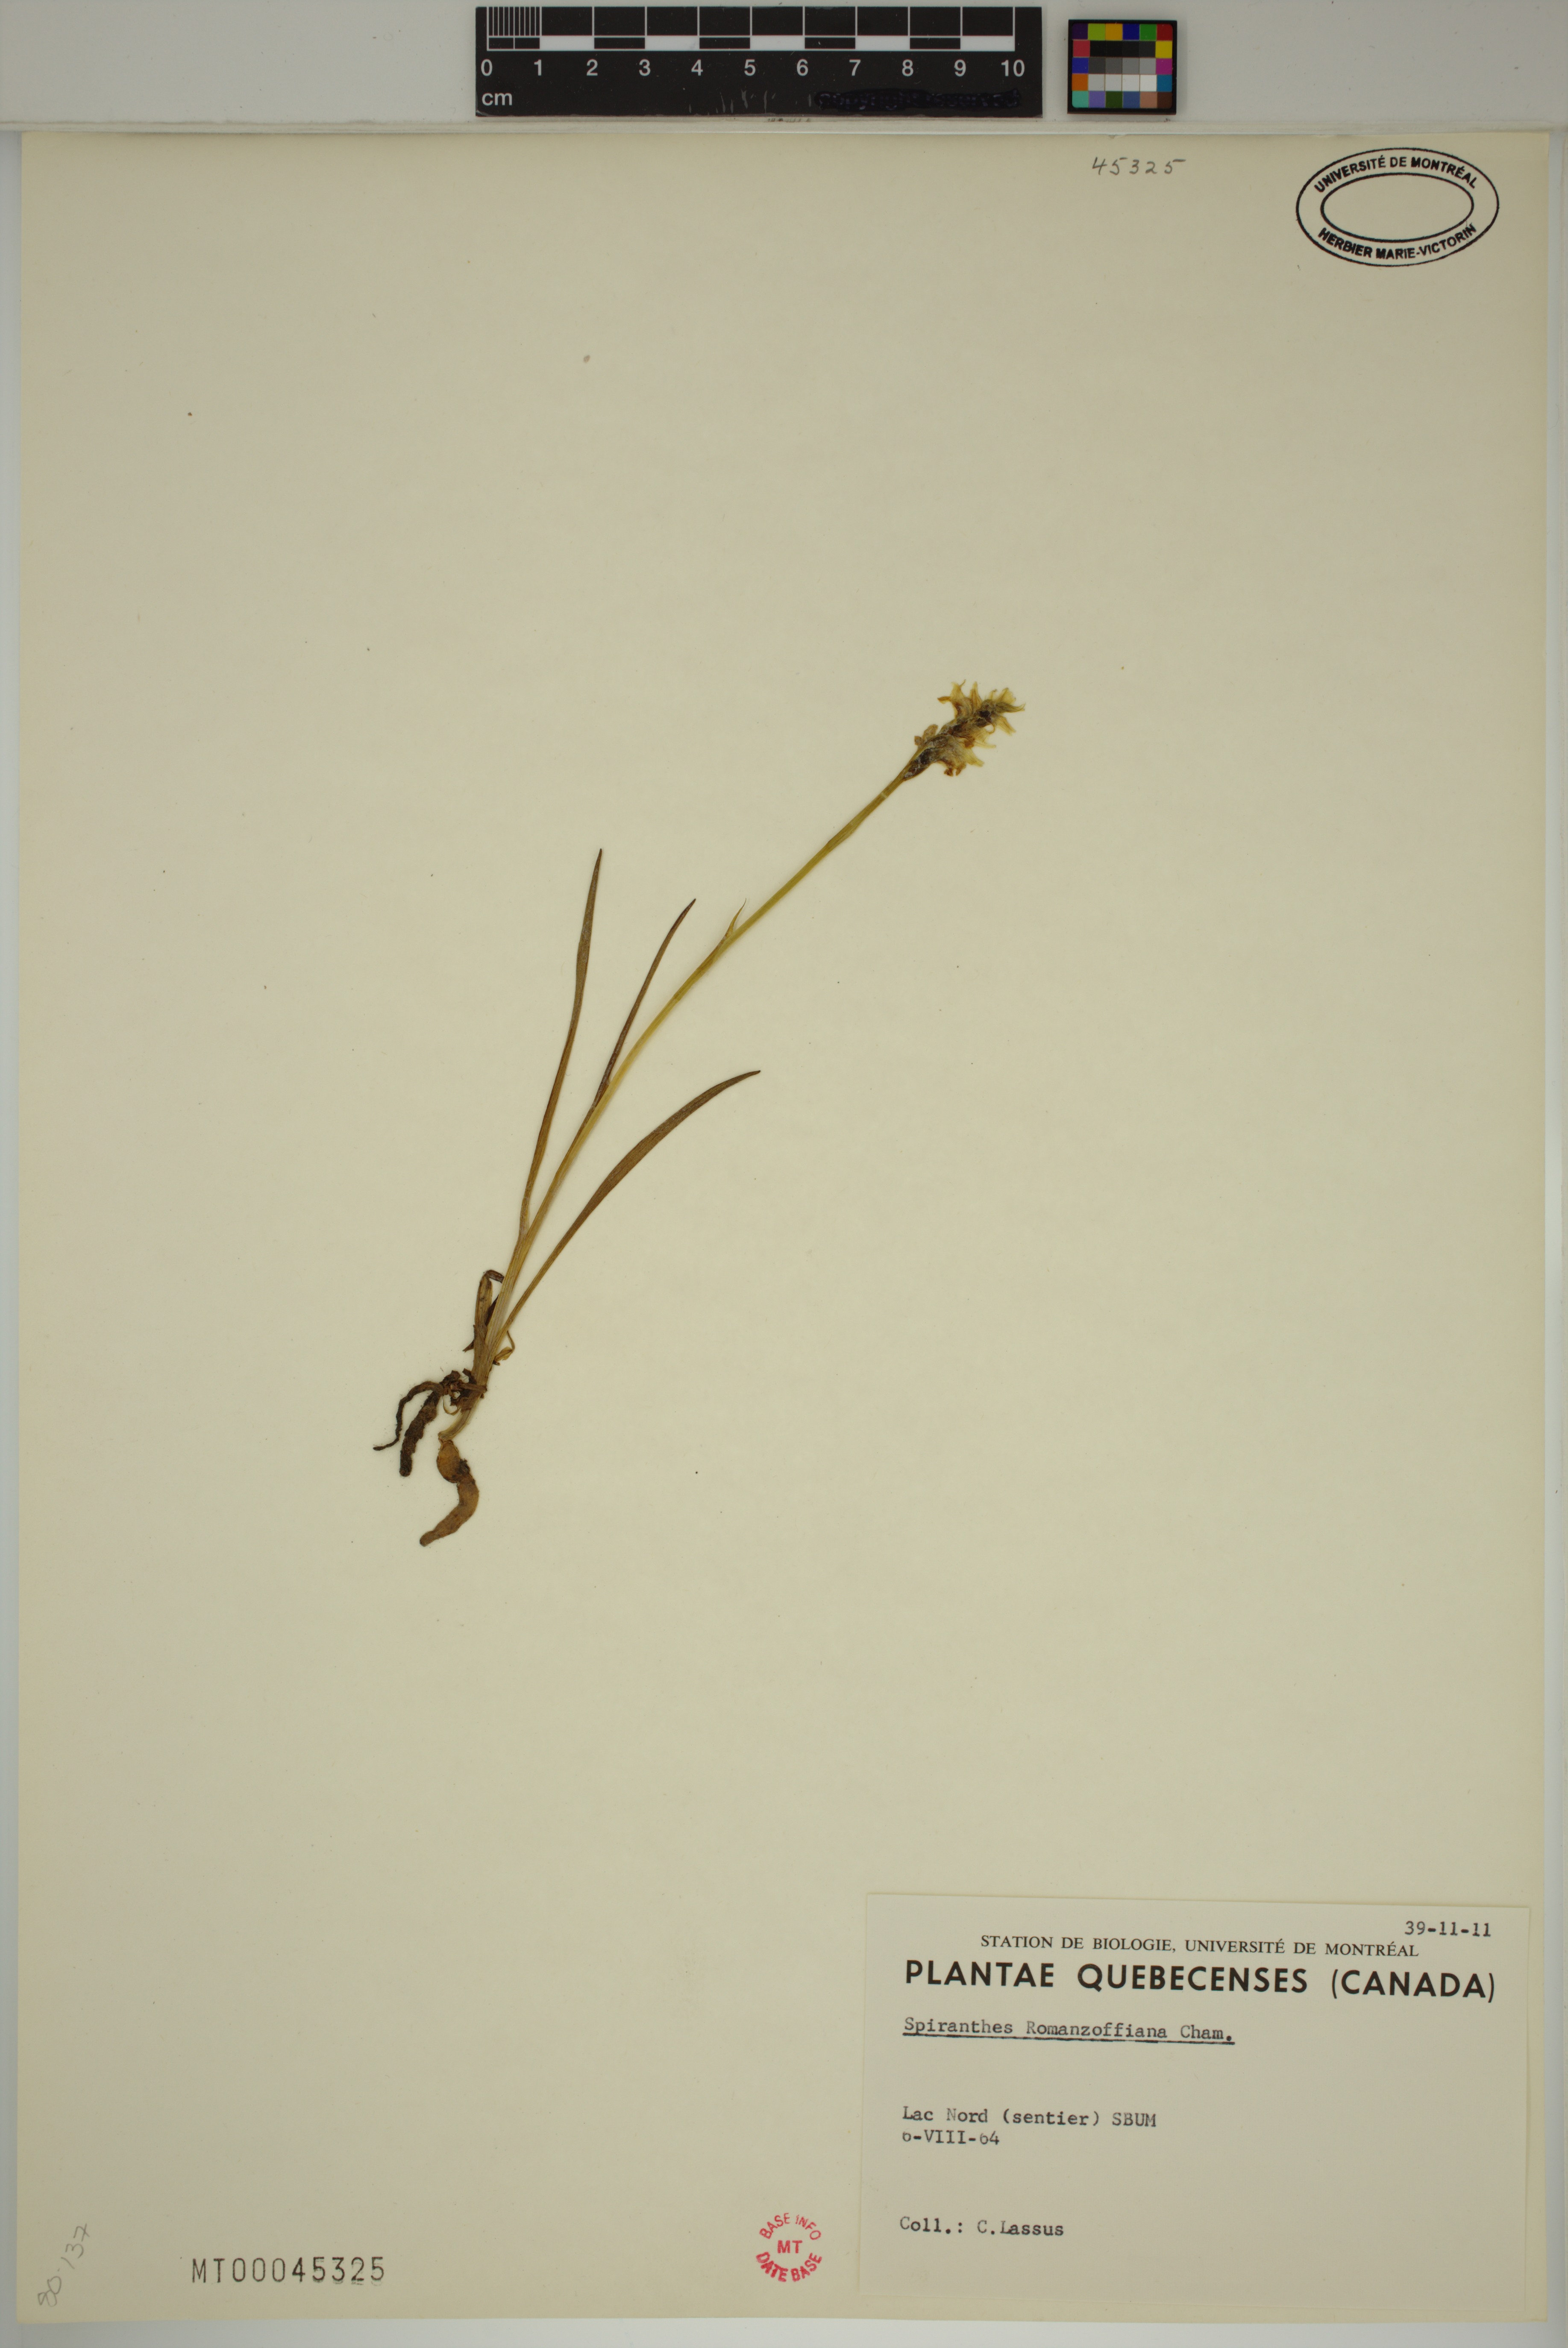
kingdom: Plantae
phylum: Tracheophyta
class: Liliopsida
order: Asparagales
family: Orchidaceae
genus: Spiranthes
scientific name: Spiranthes romanzoffiana
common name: Irish lady's-tresses
